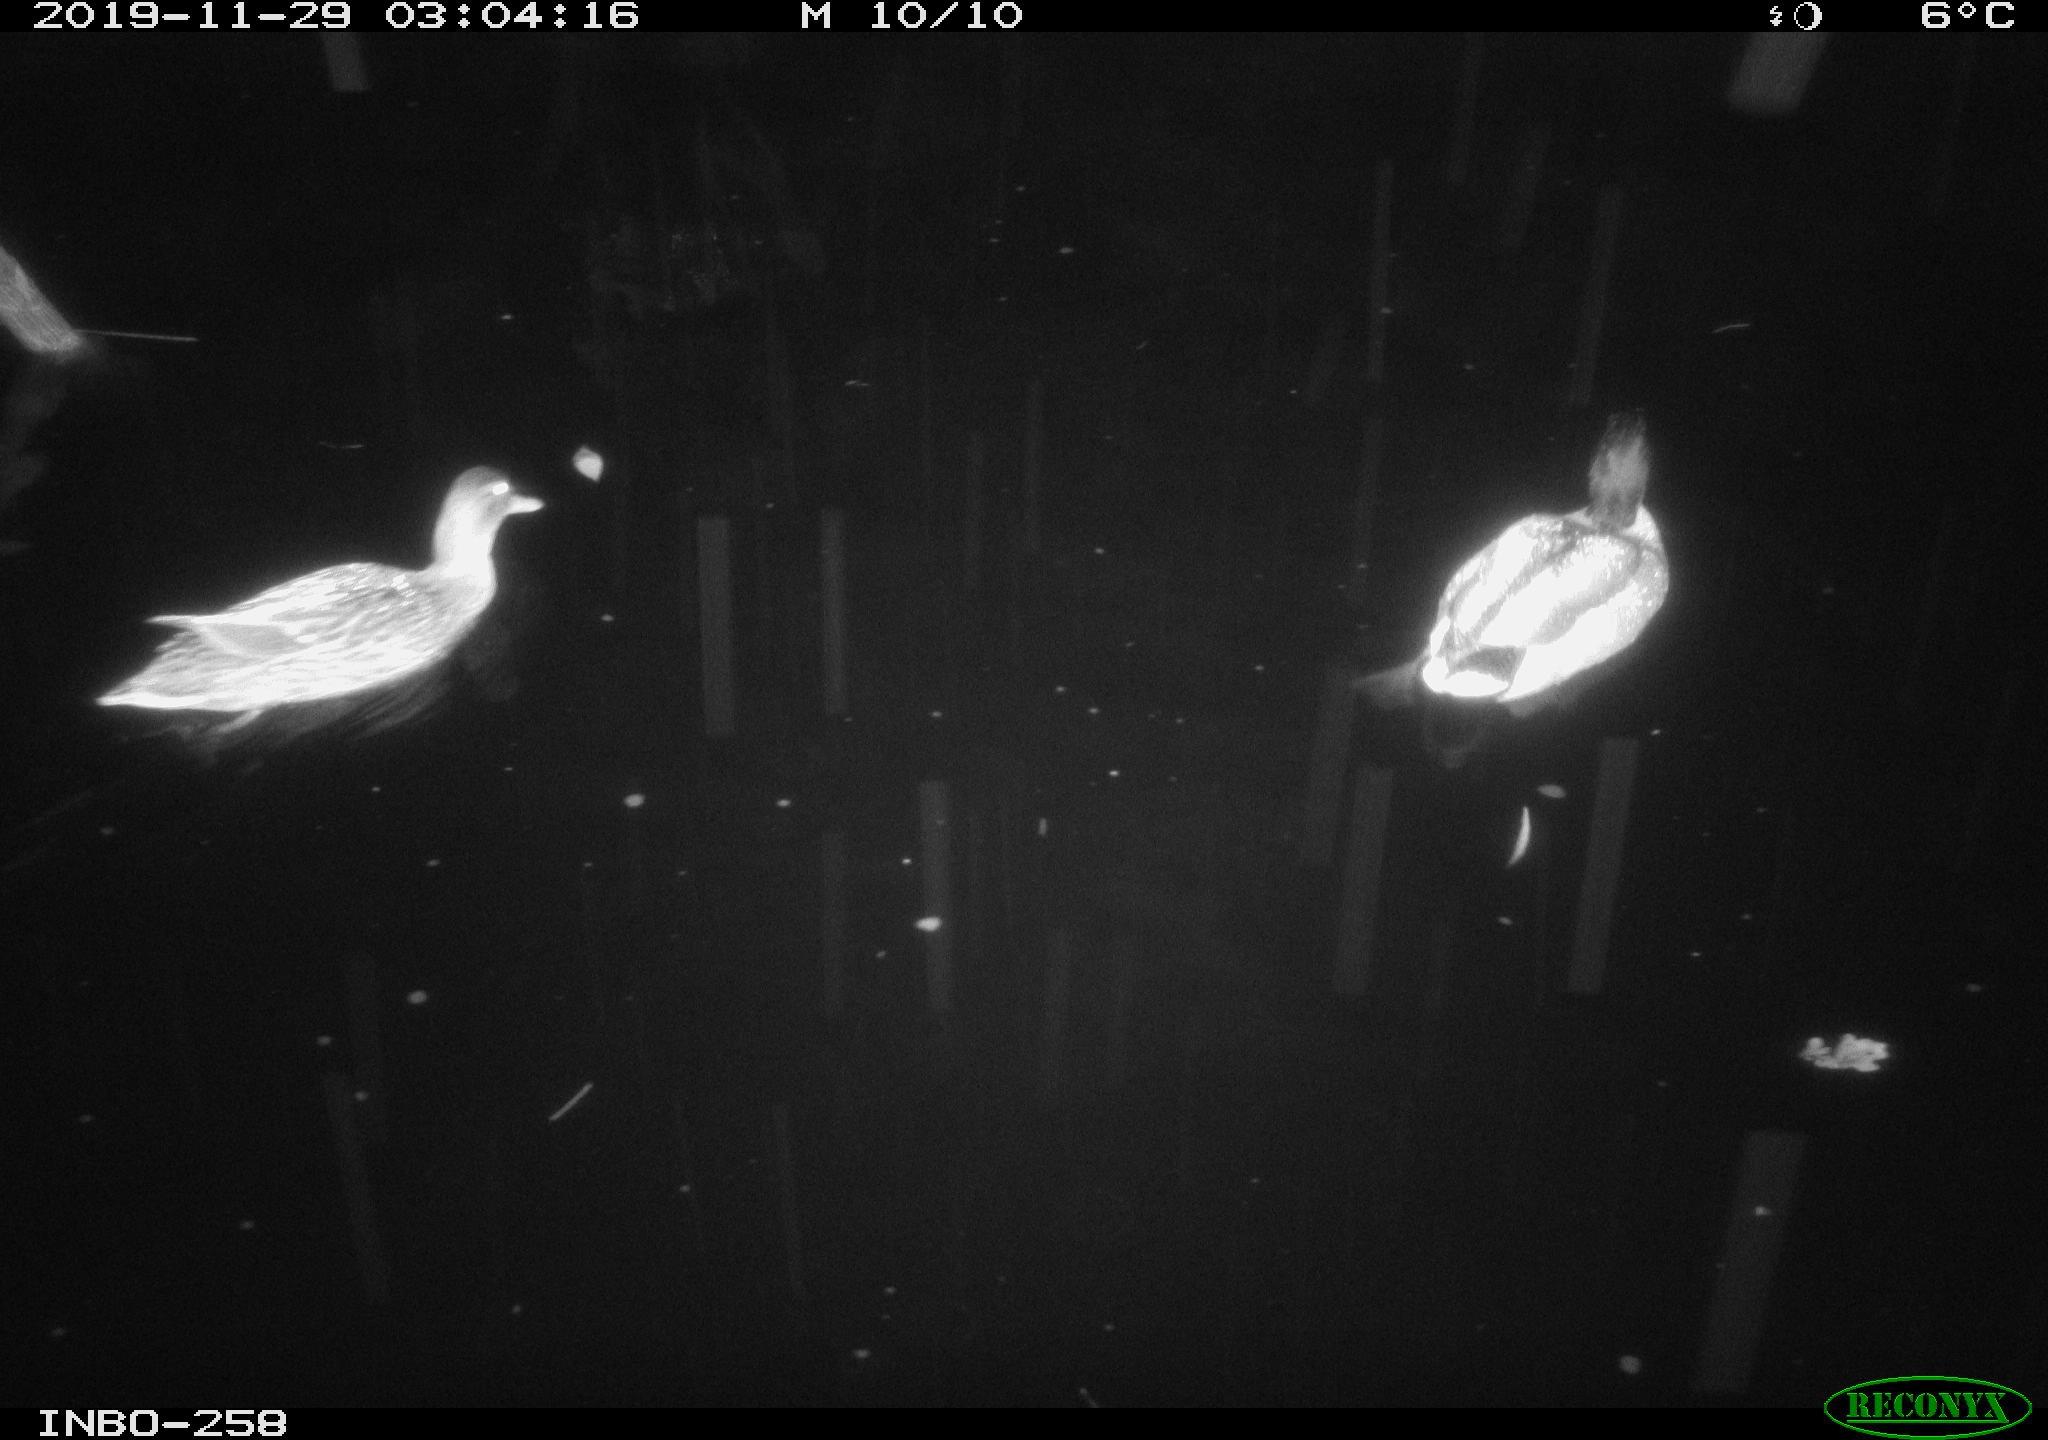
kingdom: Animalia
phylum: Chordata
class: Aves
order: Anseriformes
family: Anatidae
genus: Anas
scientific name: Anas platyrhynchos
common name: Mallard
